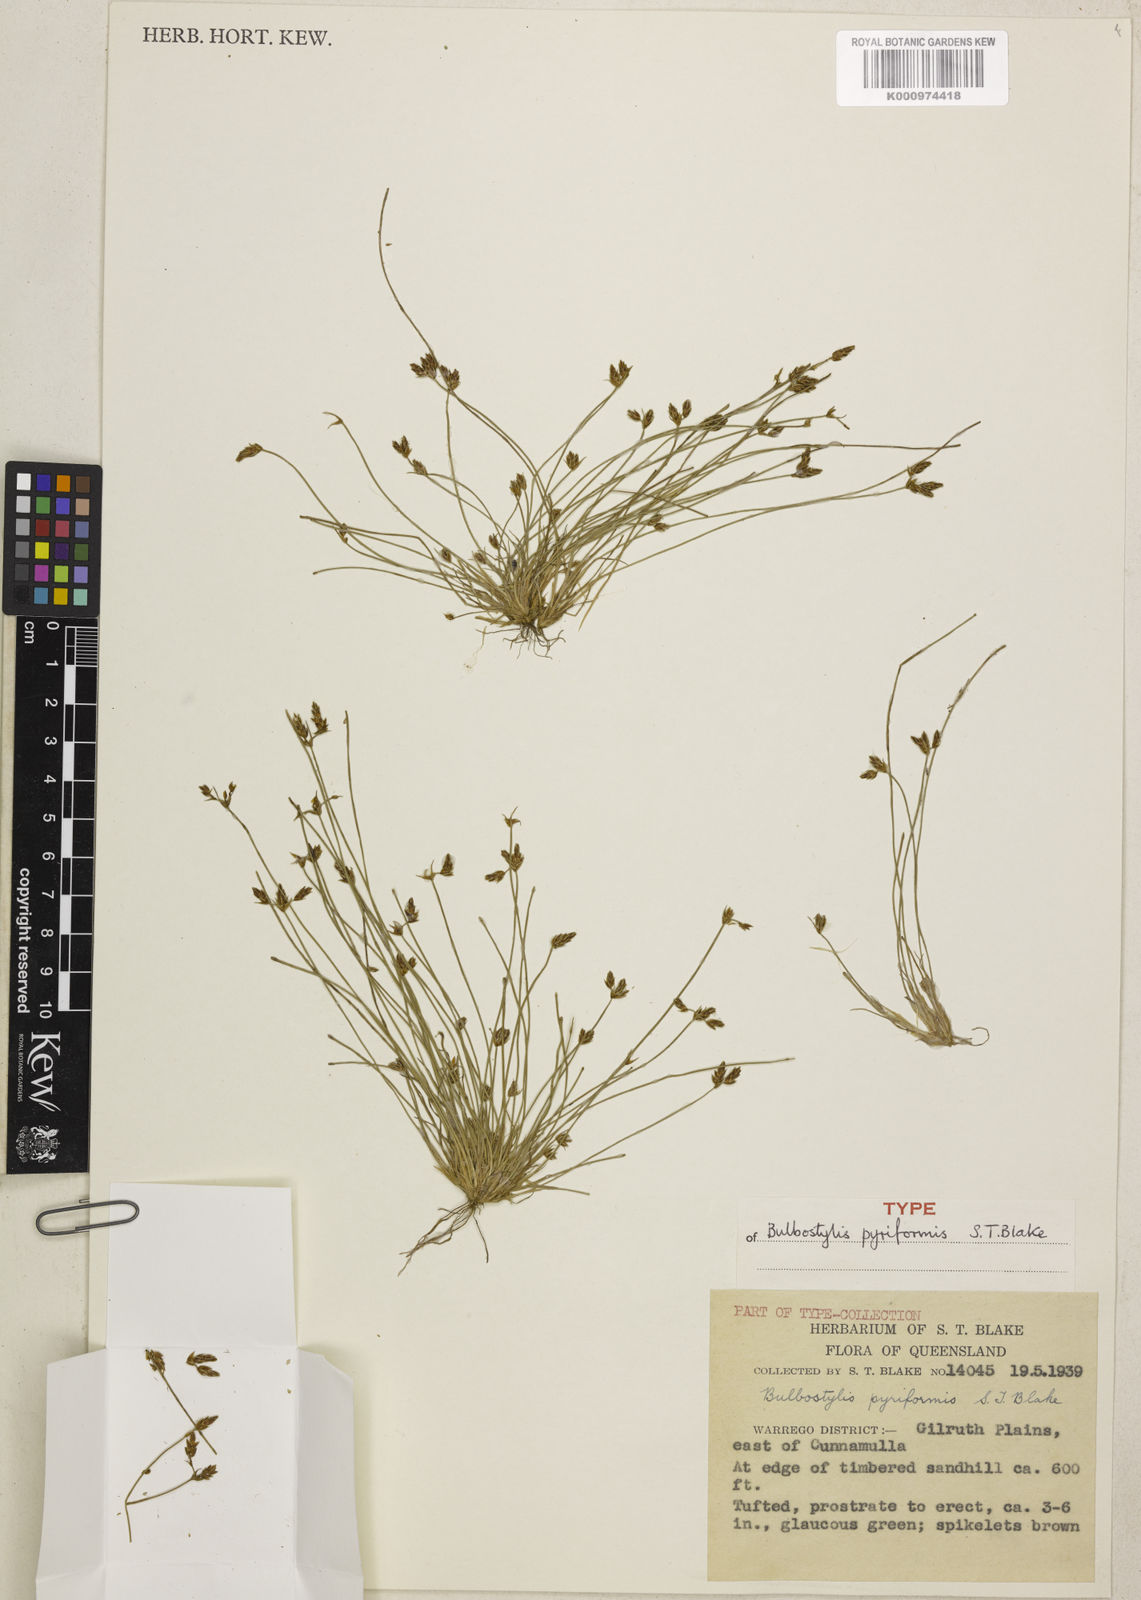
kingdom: Plantae
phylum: Tracheophyta
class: Liliopsida
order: Poales
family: Cyperaceae
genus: Bulbostylis
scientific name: Bulbostylis pyriformis
